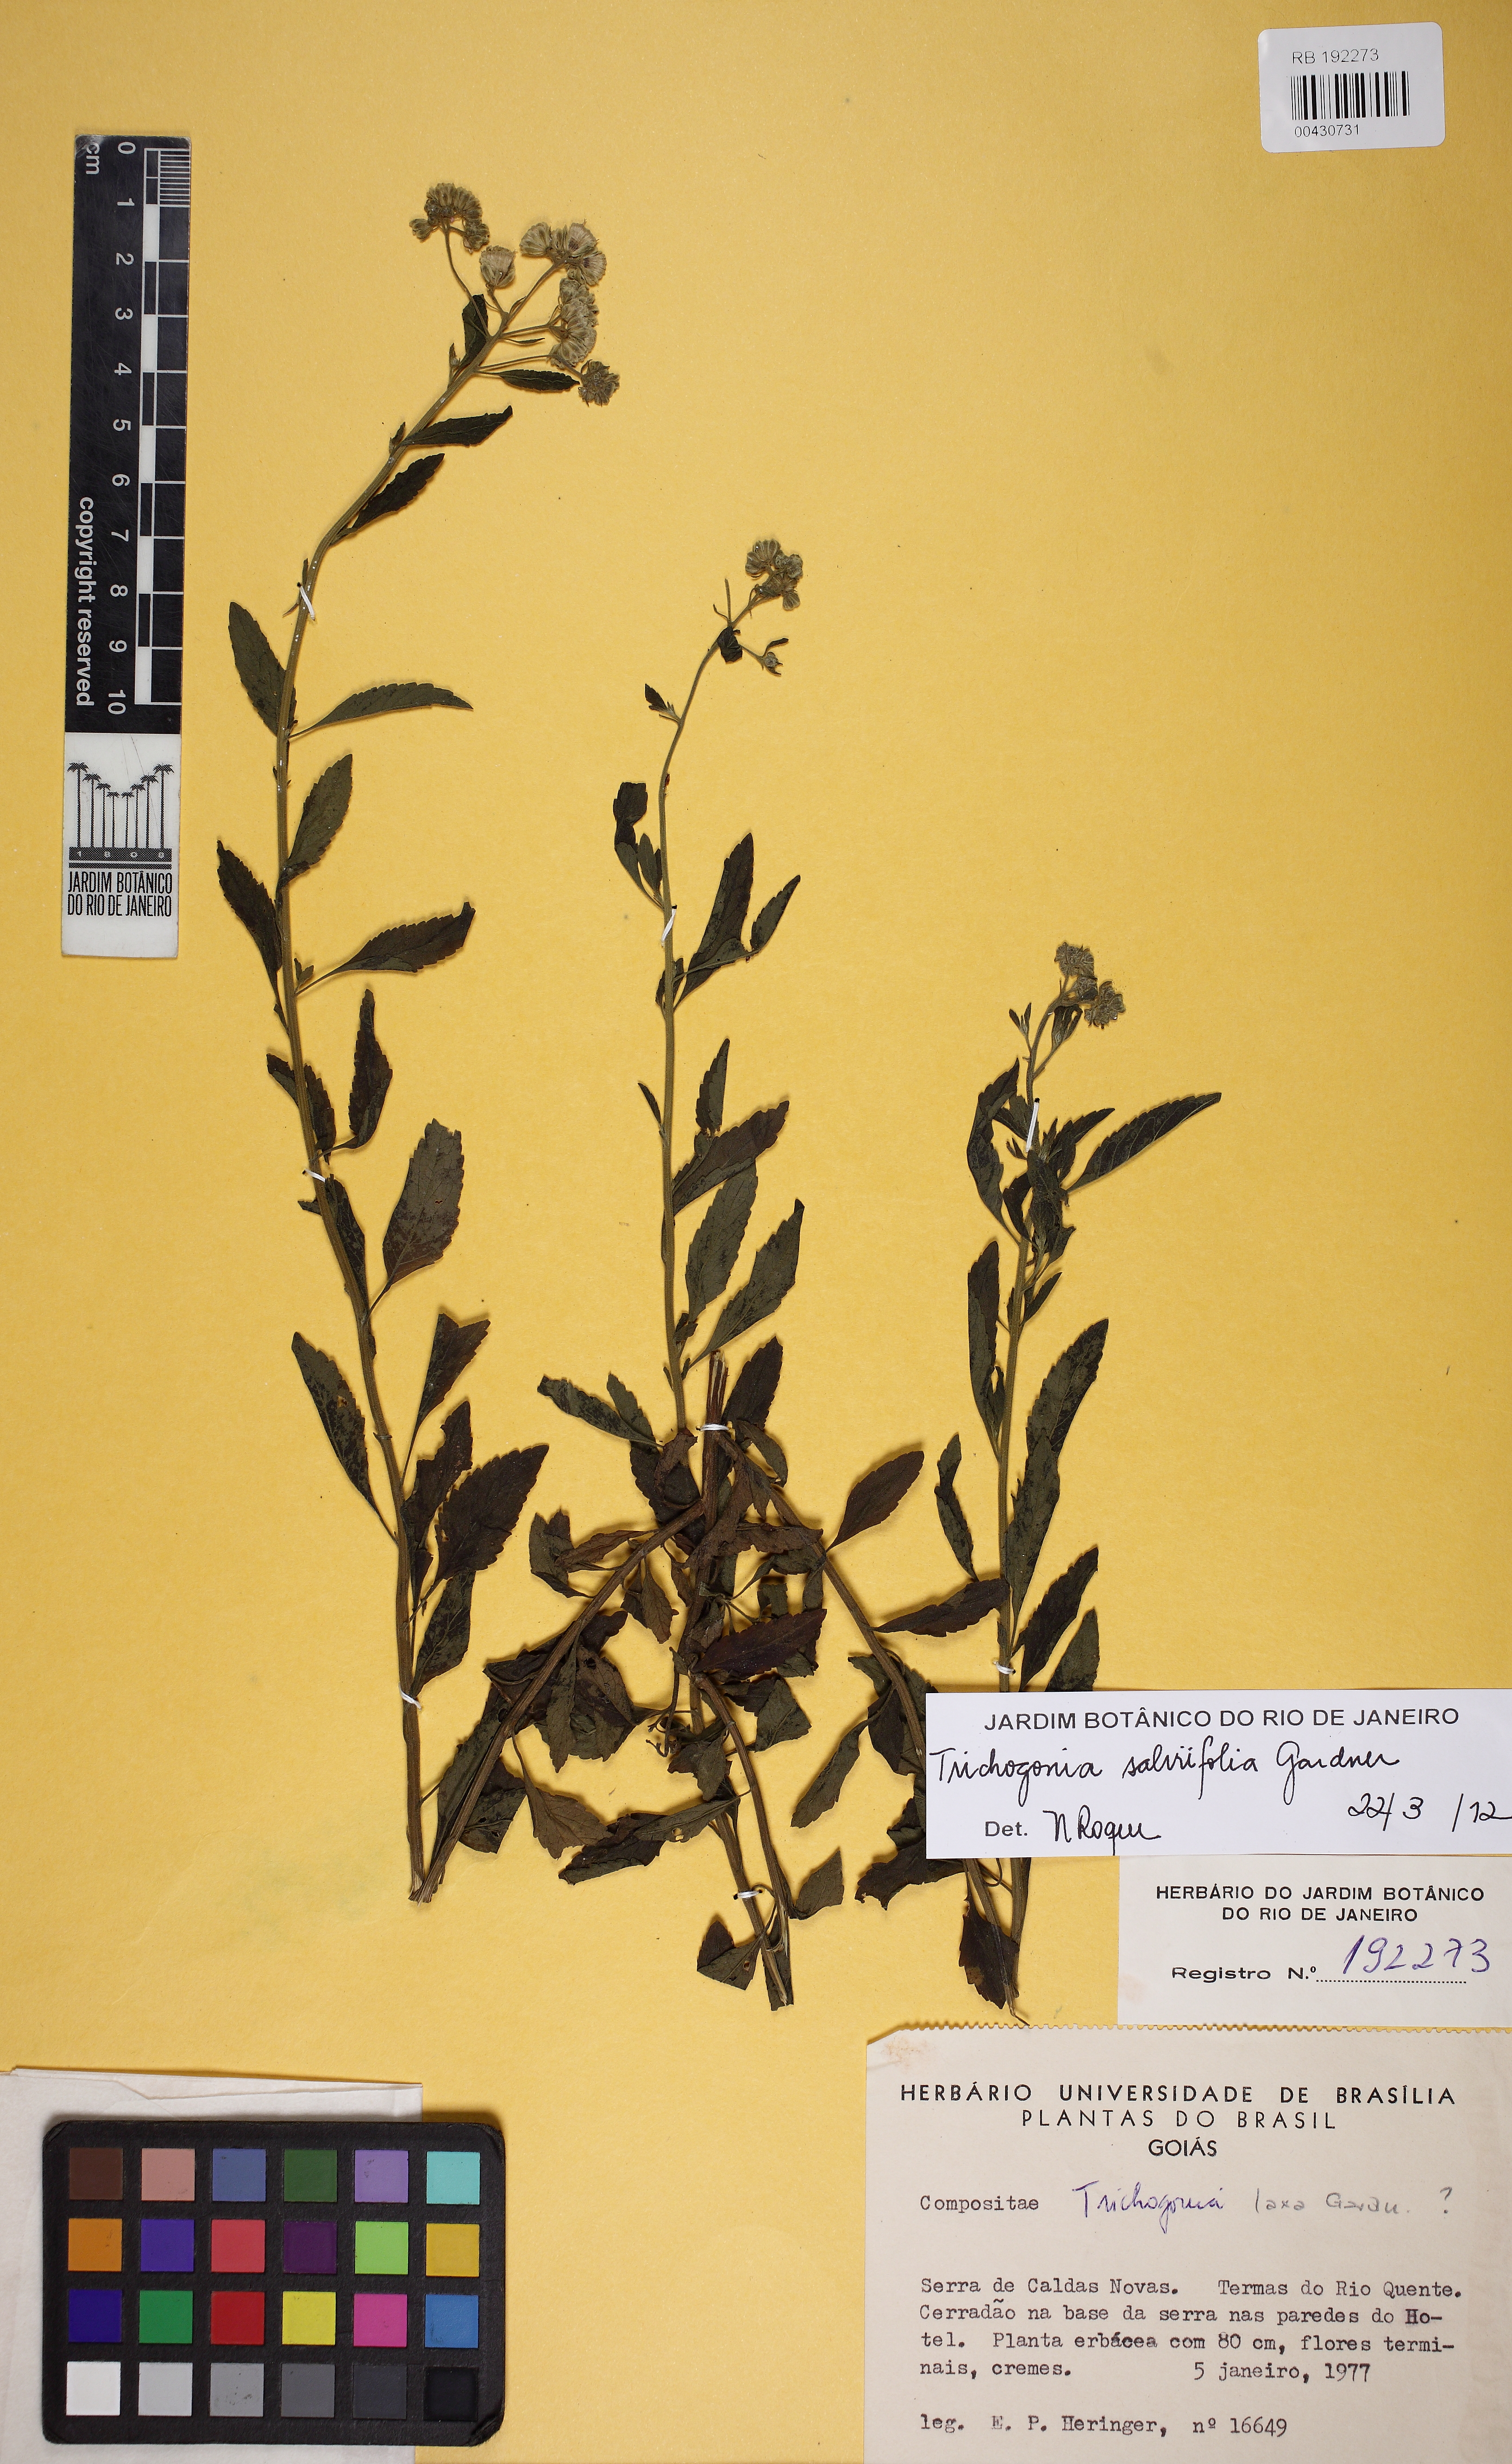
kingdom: Plantae
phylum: Tracheophyta
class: Magnoliopsida
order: Asterales
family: Asteraceae
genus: Trichogonia
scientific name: Trichogonia salviifolia
